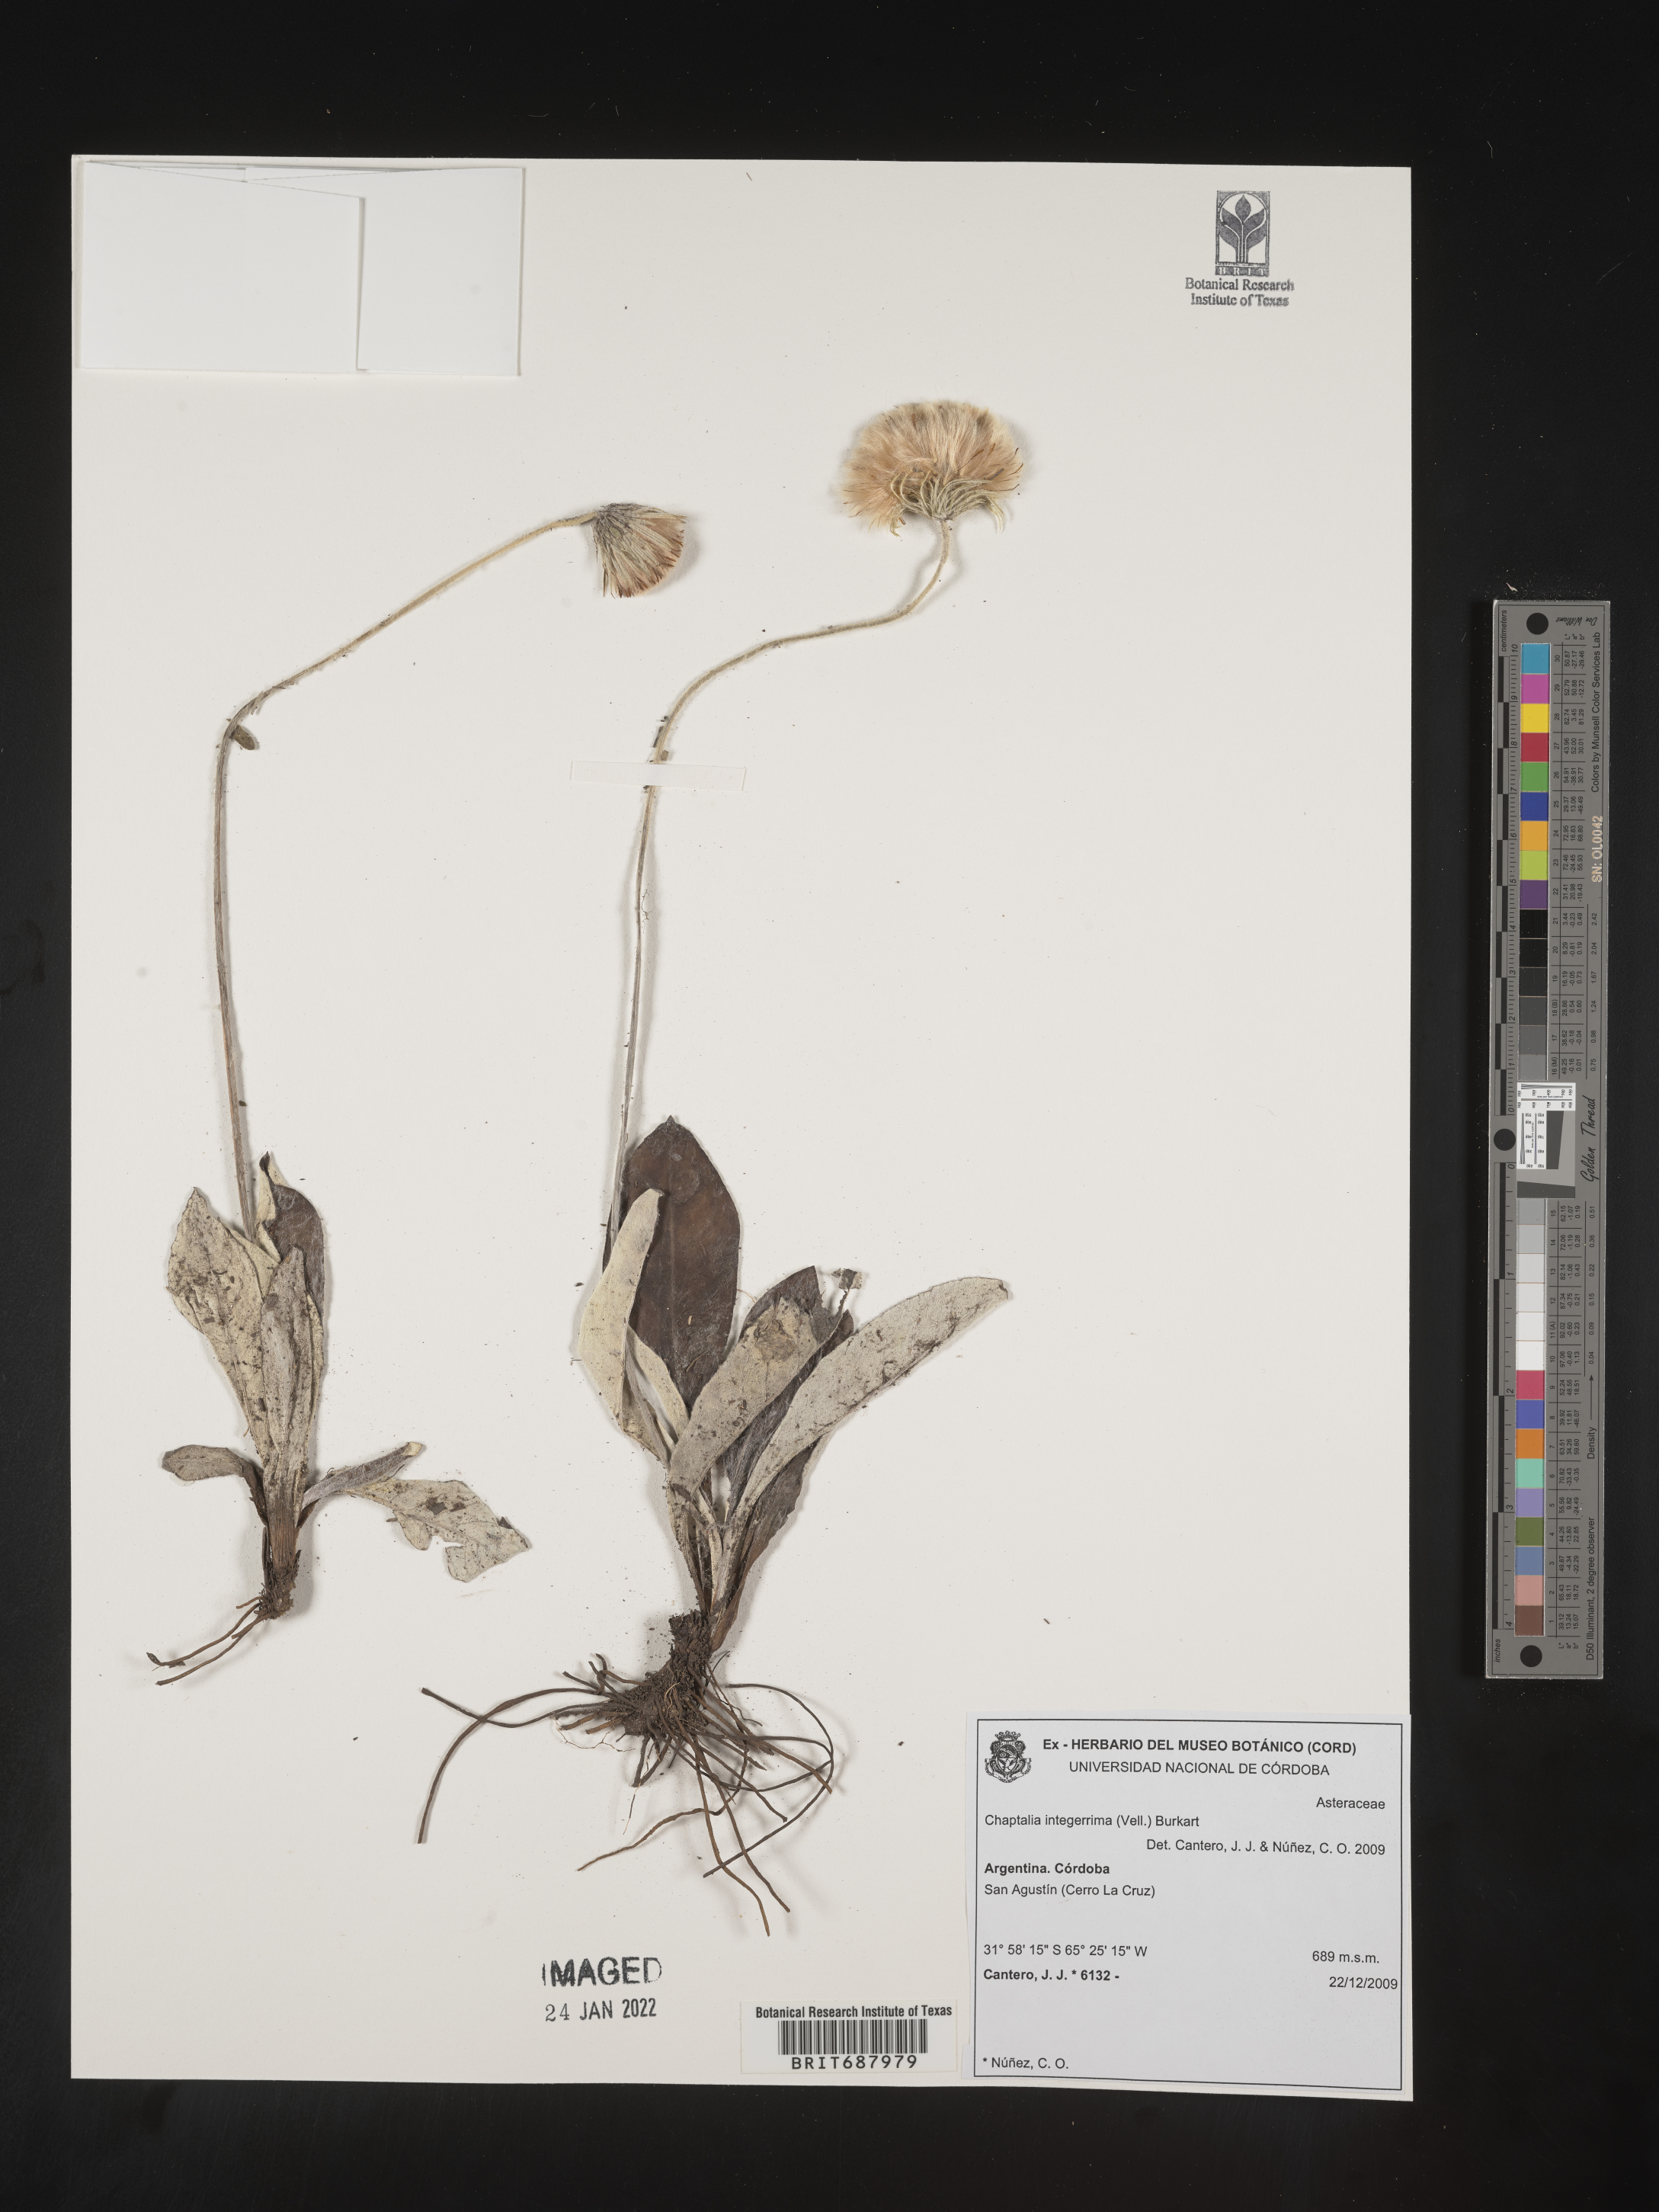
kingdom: Plantae
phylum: Tracheophyta
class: Magnoliopsida
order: Asterales
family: Asteraceae
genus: Chaptalia
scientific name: Chaptalia
